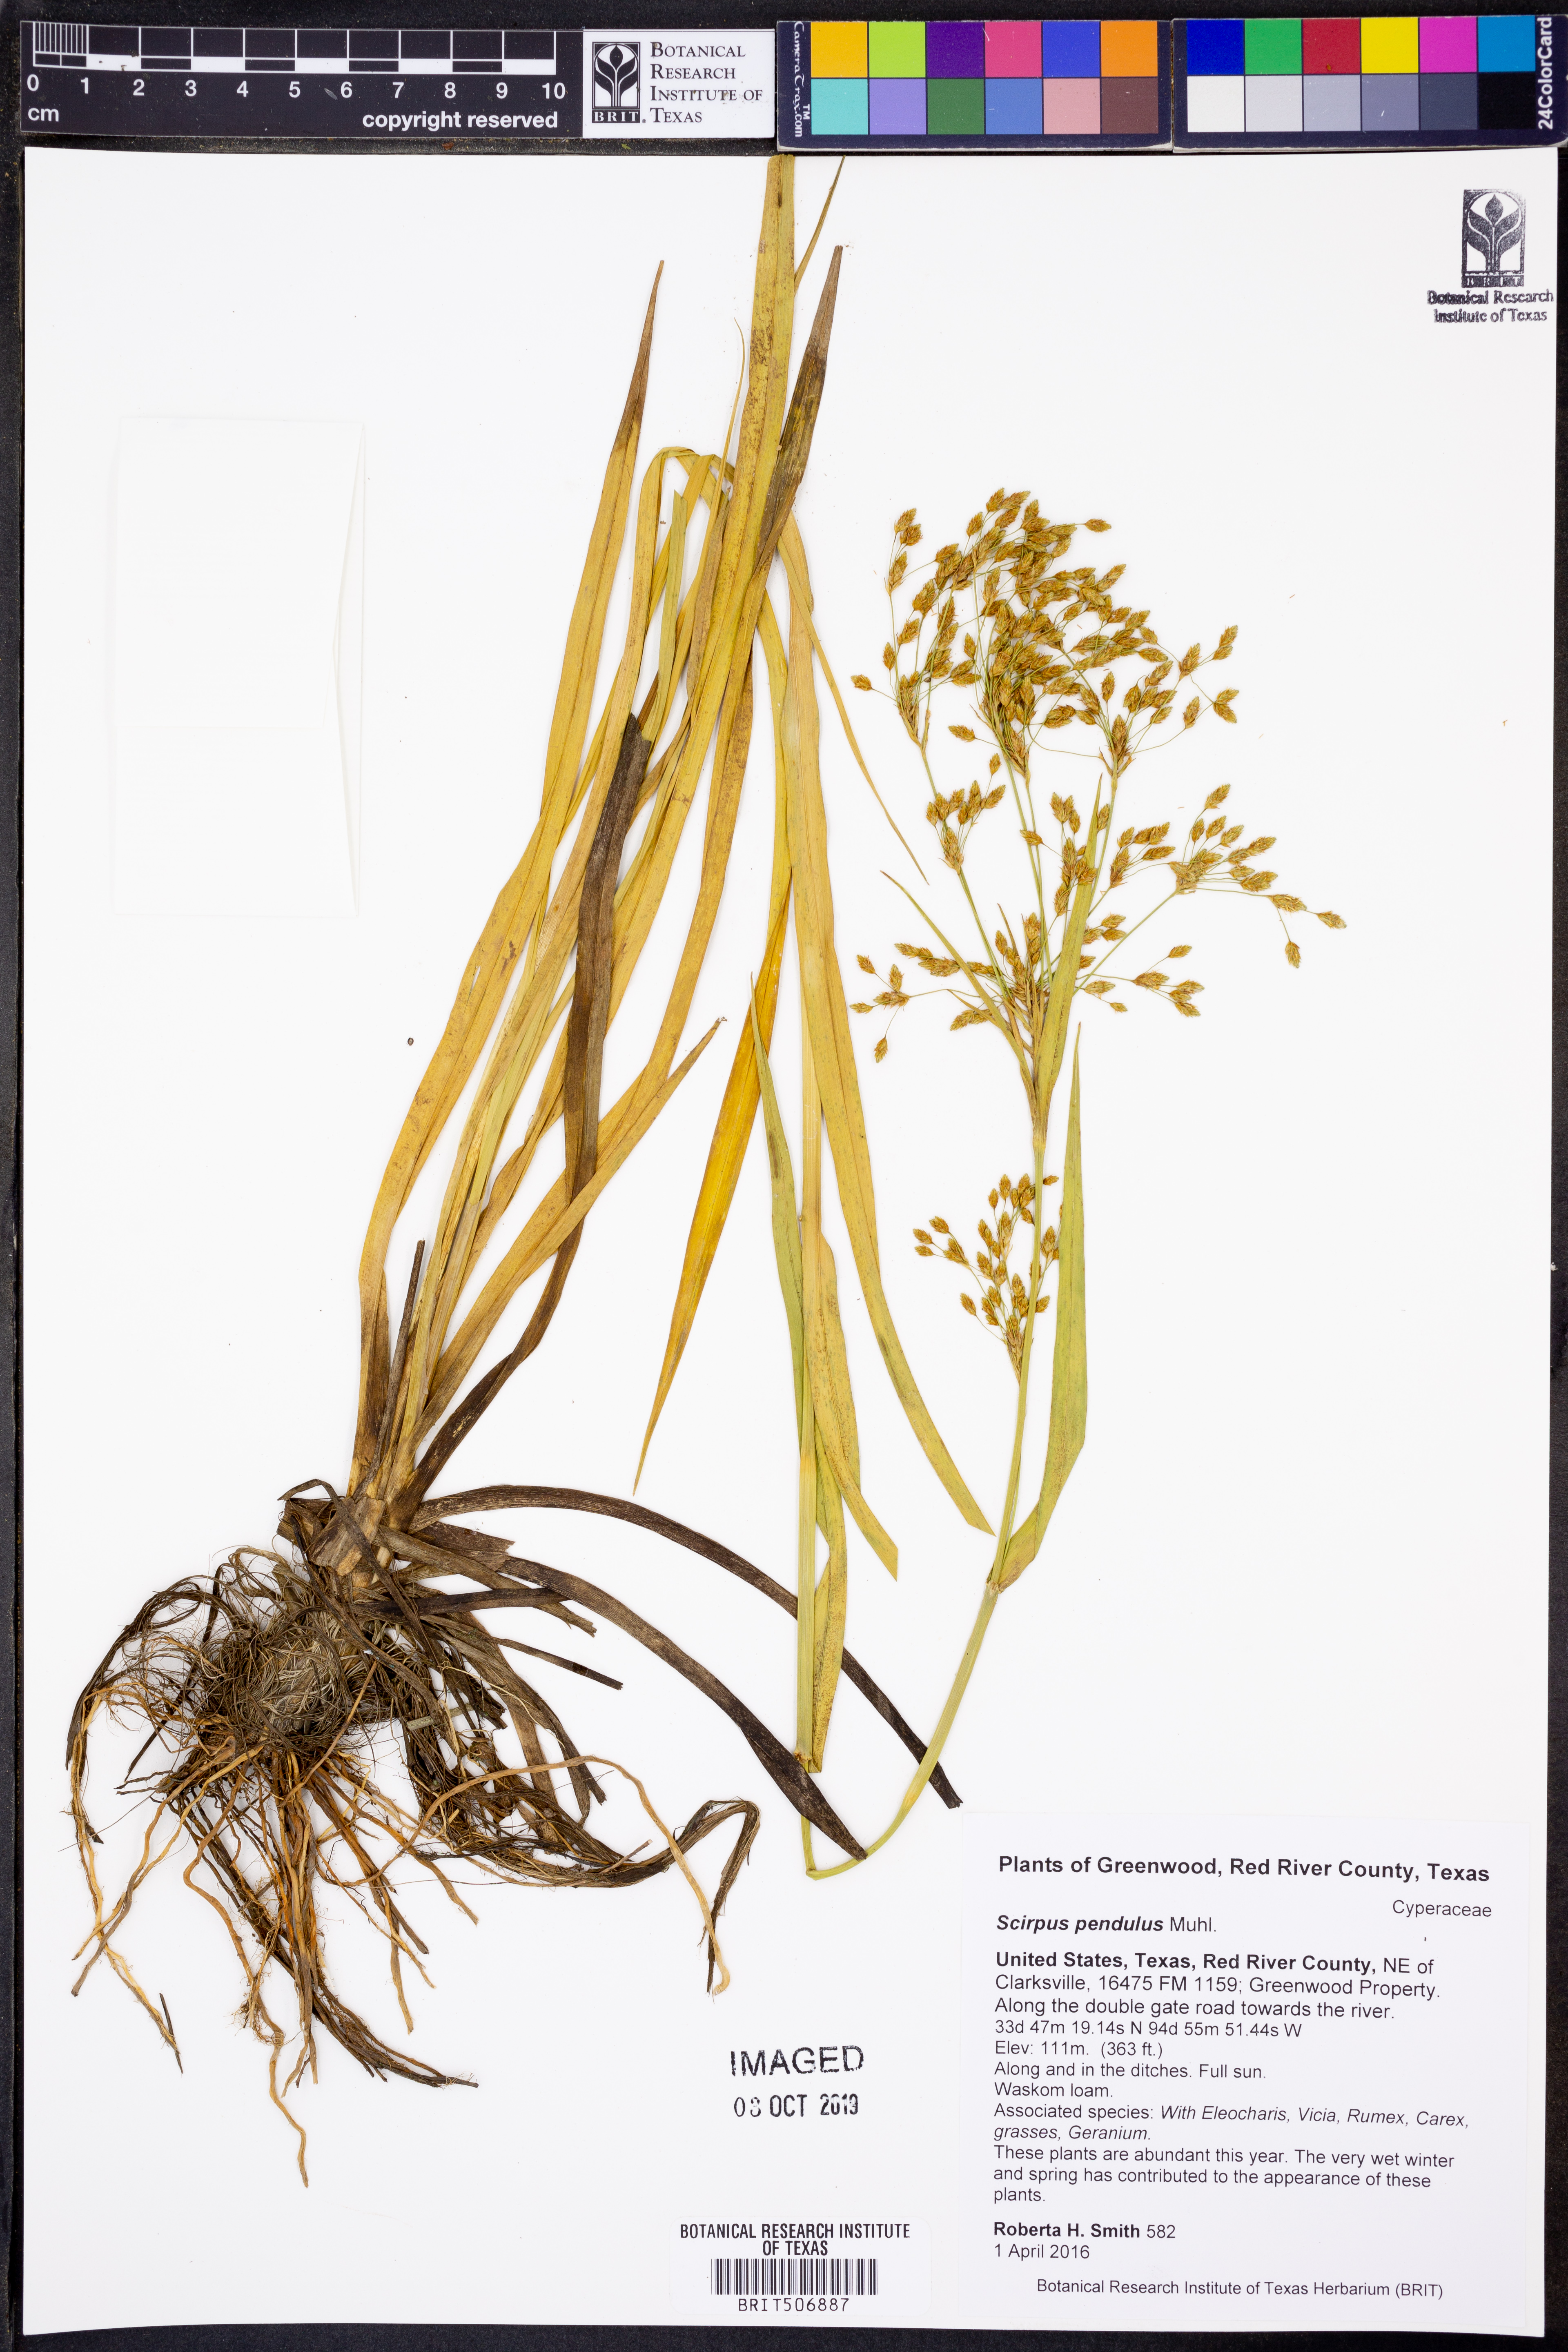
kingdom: Plantae
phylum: Tracheophyta
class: Liliopsida
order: Poales
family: Cyperaceae
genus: Scirpus
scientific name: Scirpus pendulus
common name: Nodding bulrush
